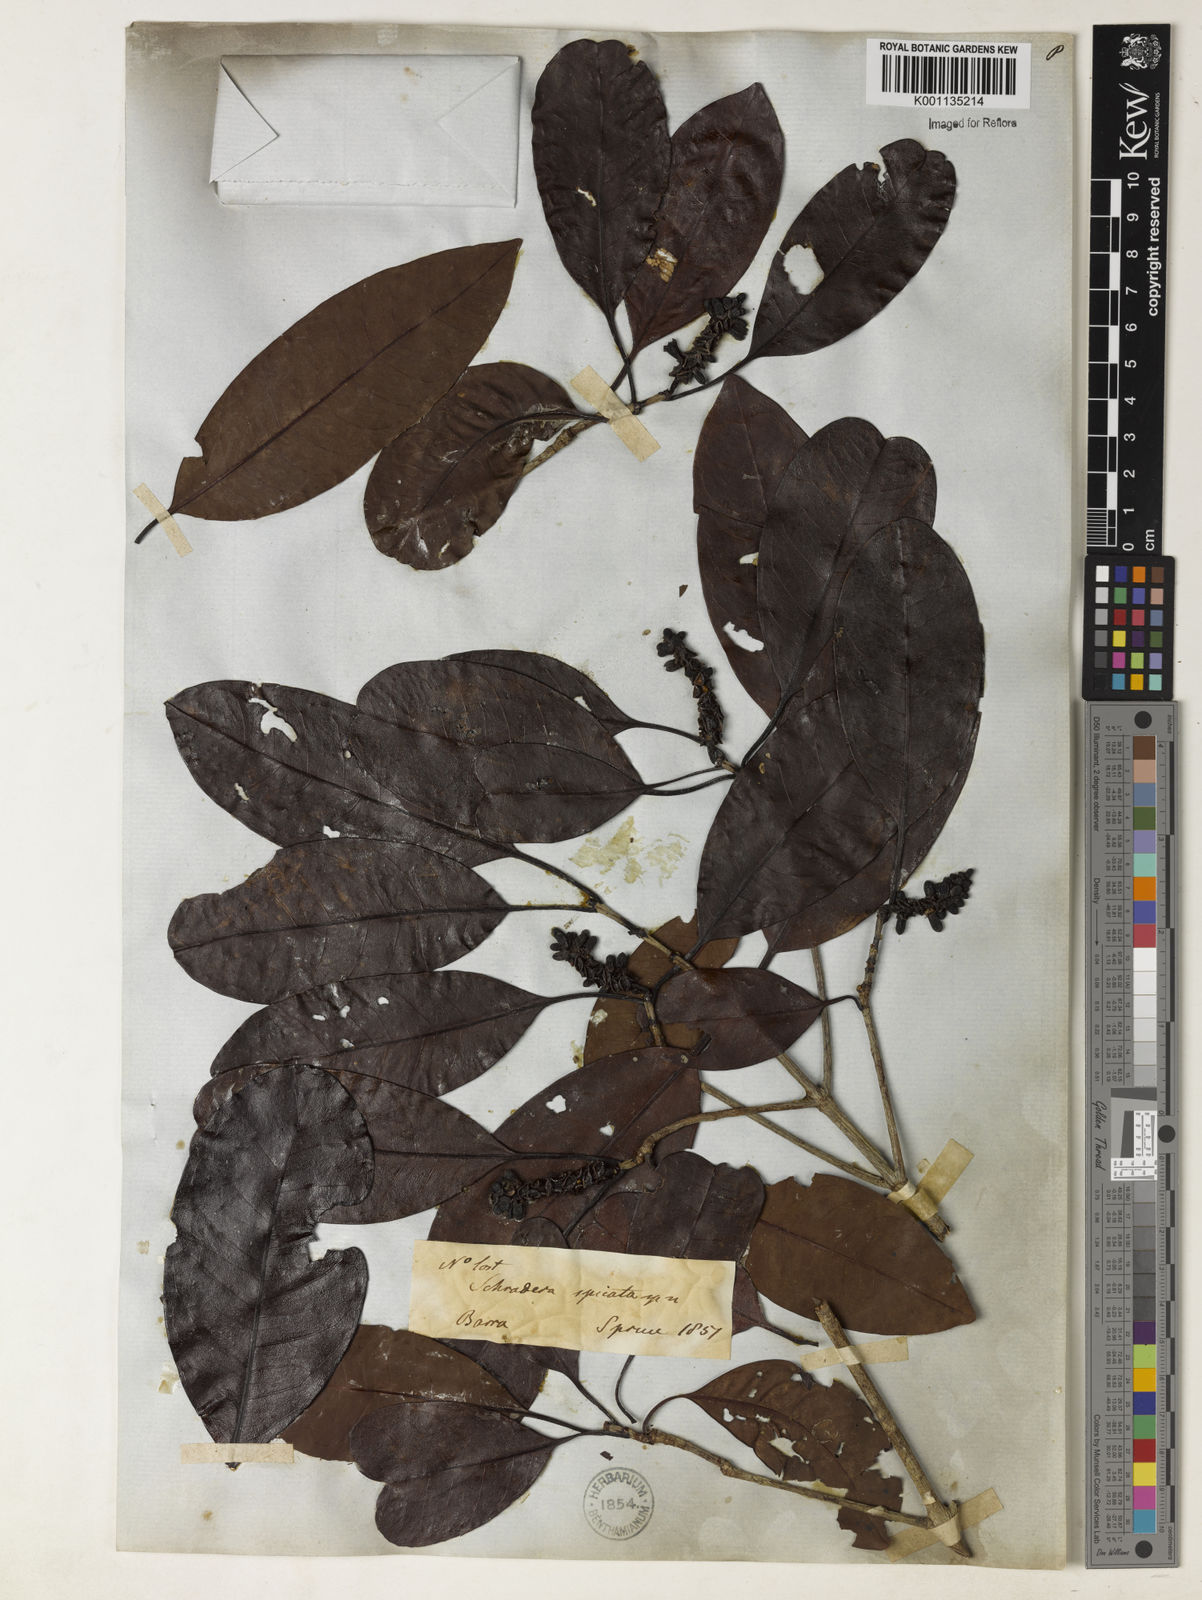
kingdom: Plantae
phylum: Tracheophyta
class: Magnoliopsida
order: Gentianales
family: Rubiaceae
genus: Stachyarrhena
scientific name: Stachyarrhena spicata
